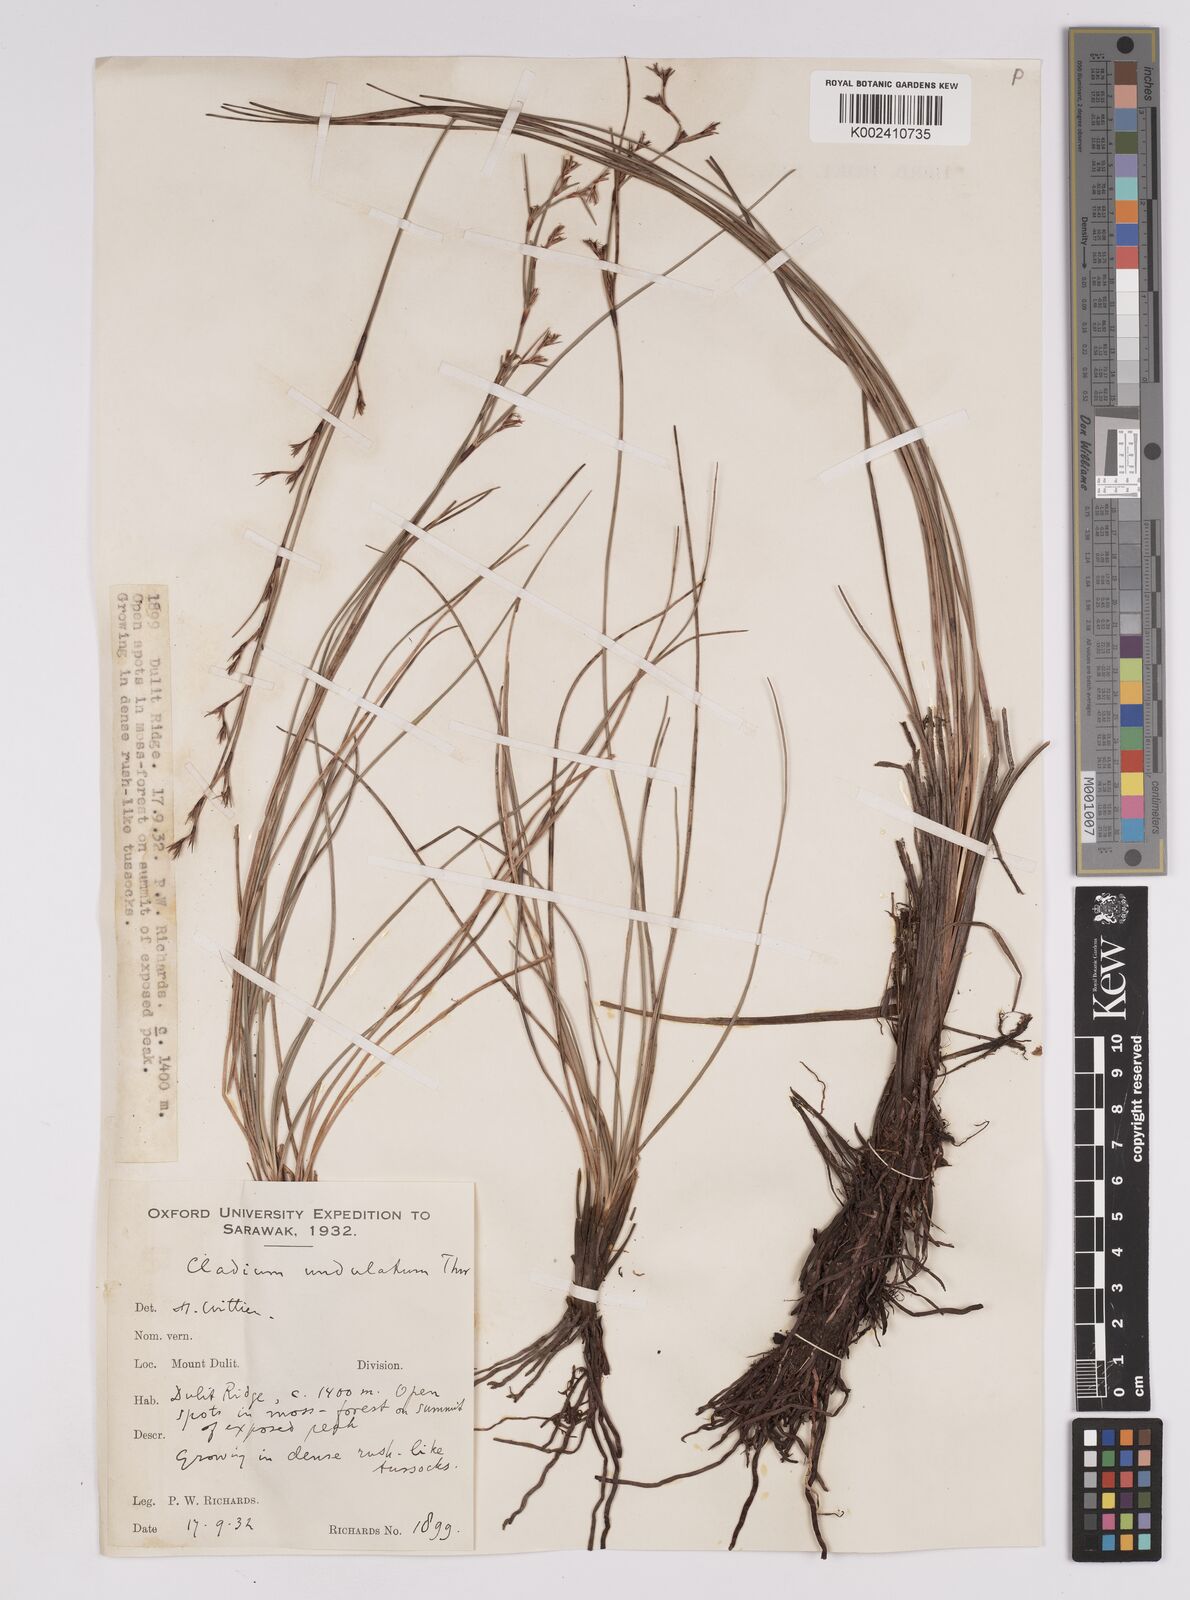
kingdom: Plantae
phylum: Tracheophyta
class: Liliopsida
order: Poales
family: Cyperaceae
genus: Anthelepis
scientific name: Anthelepis undulata
